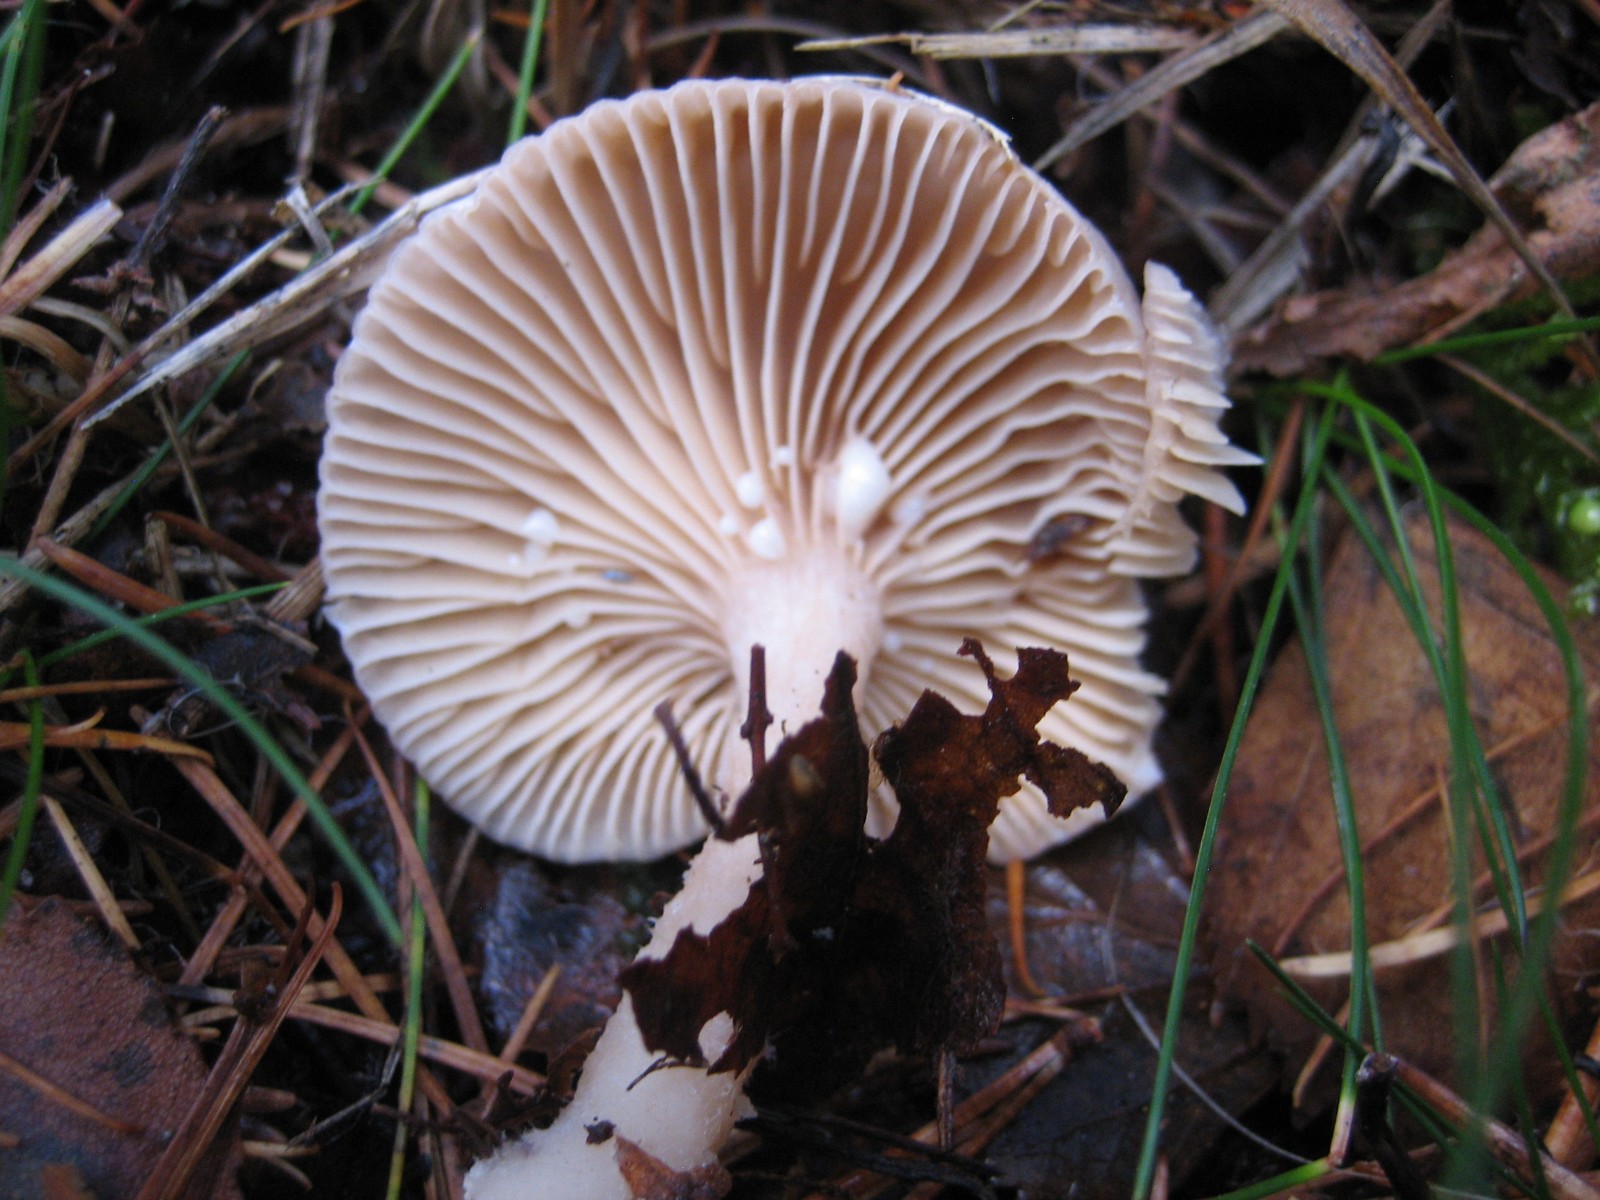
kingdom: Fungi
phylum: Basidiomycota
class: Agaricomycetes
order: Russulales
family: Russulaceae
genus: Lactarius
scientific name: Lactarius
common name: mælkehat
